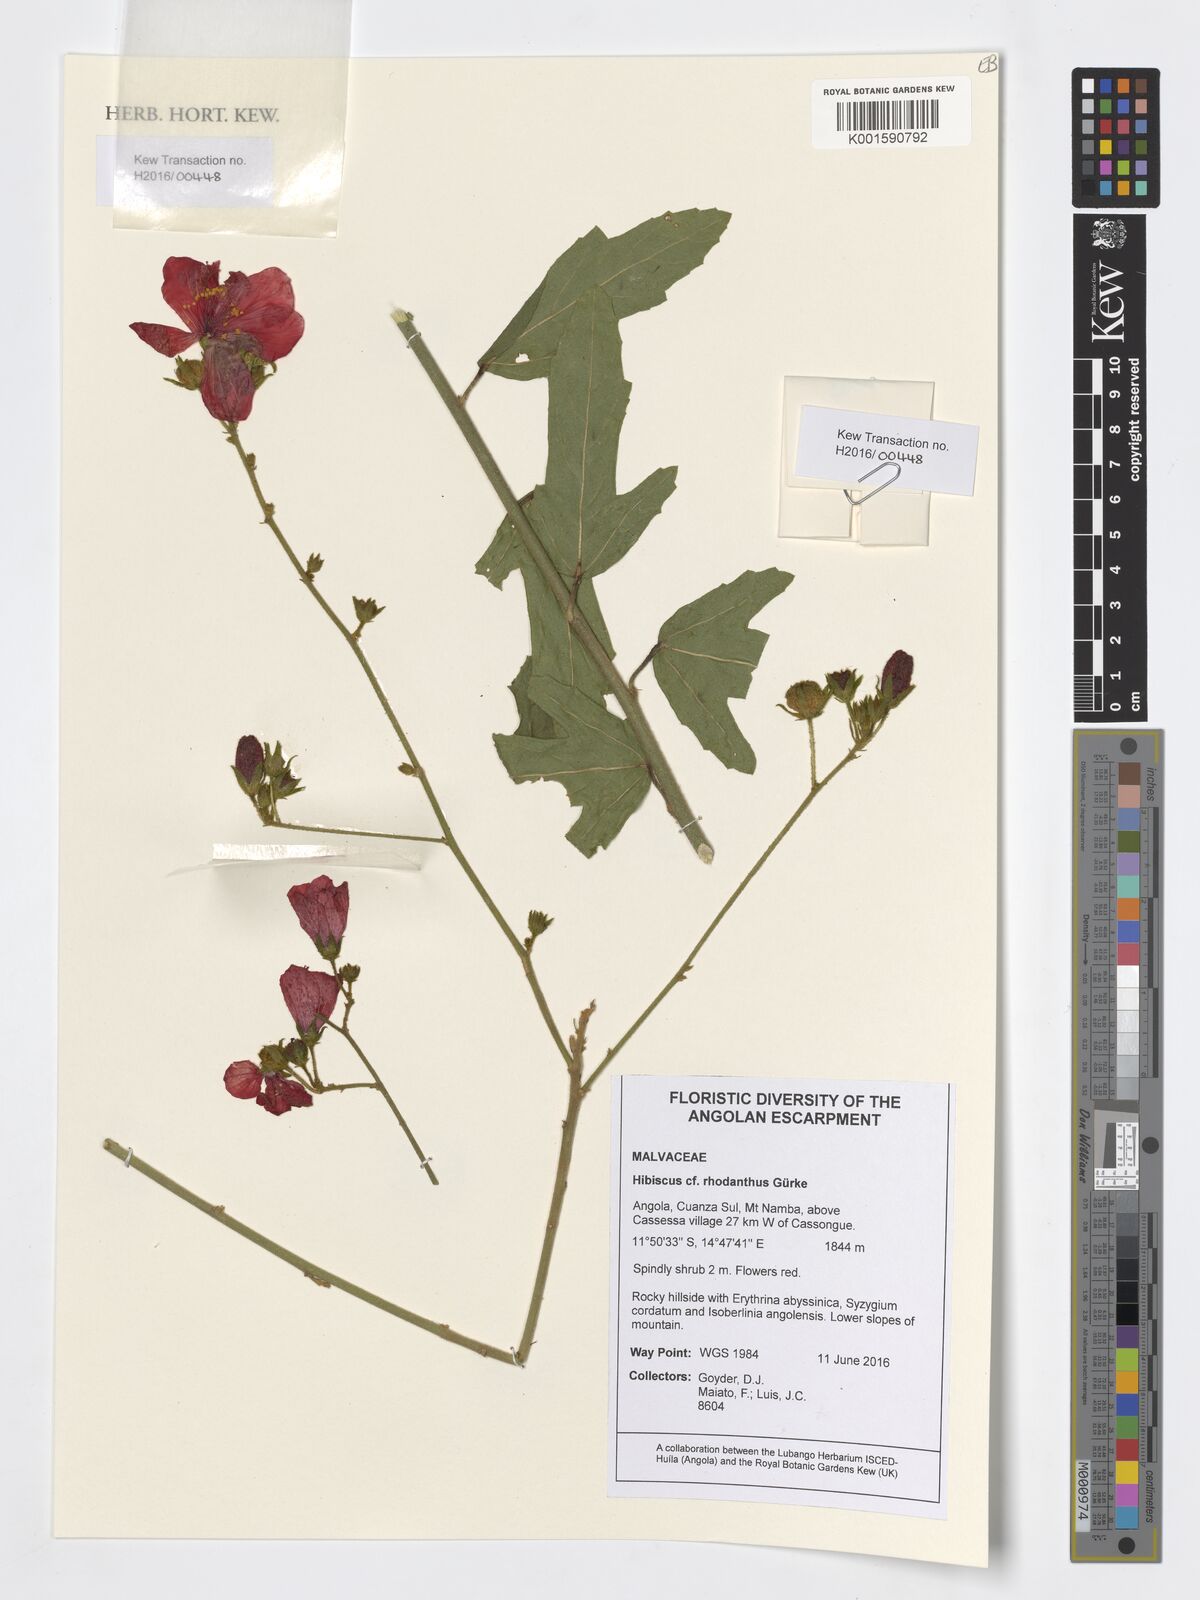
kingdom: Plantae
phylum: Tracheophyta
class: Magnoliopsida
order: Malvales
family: Malvaceae
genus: Hibiscus
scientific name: Hibiscus rhodanthus
